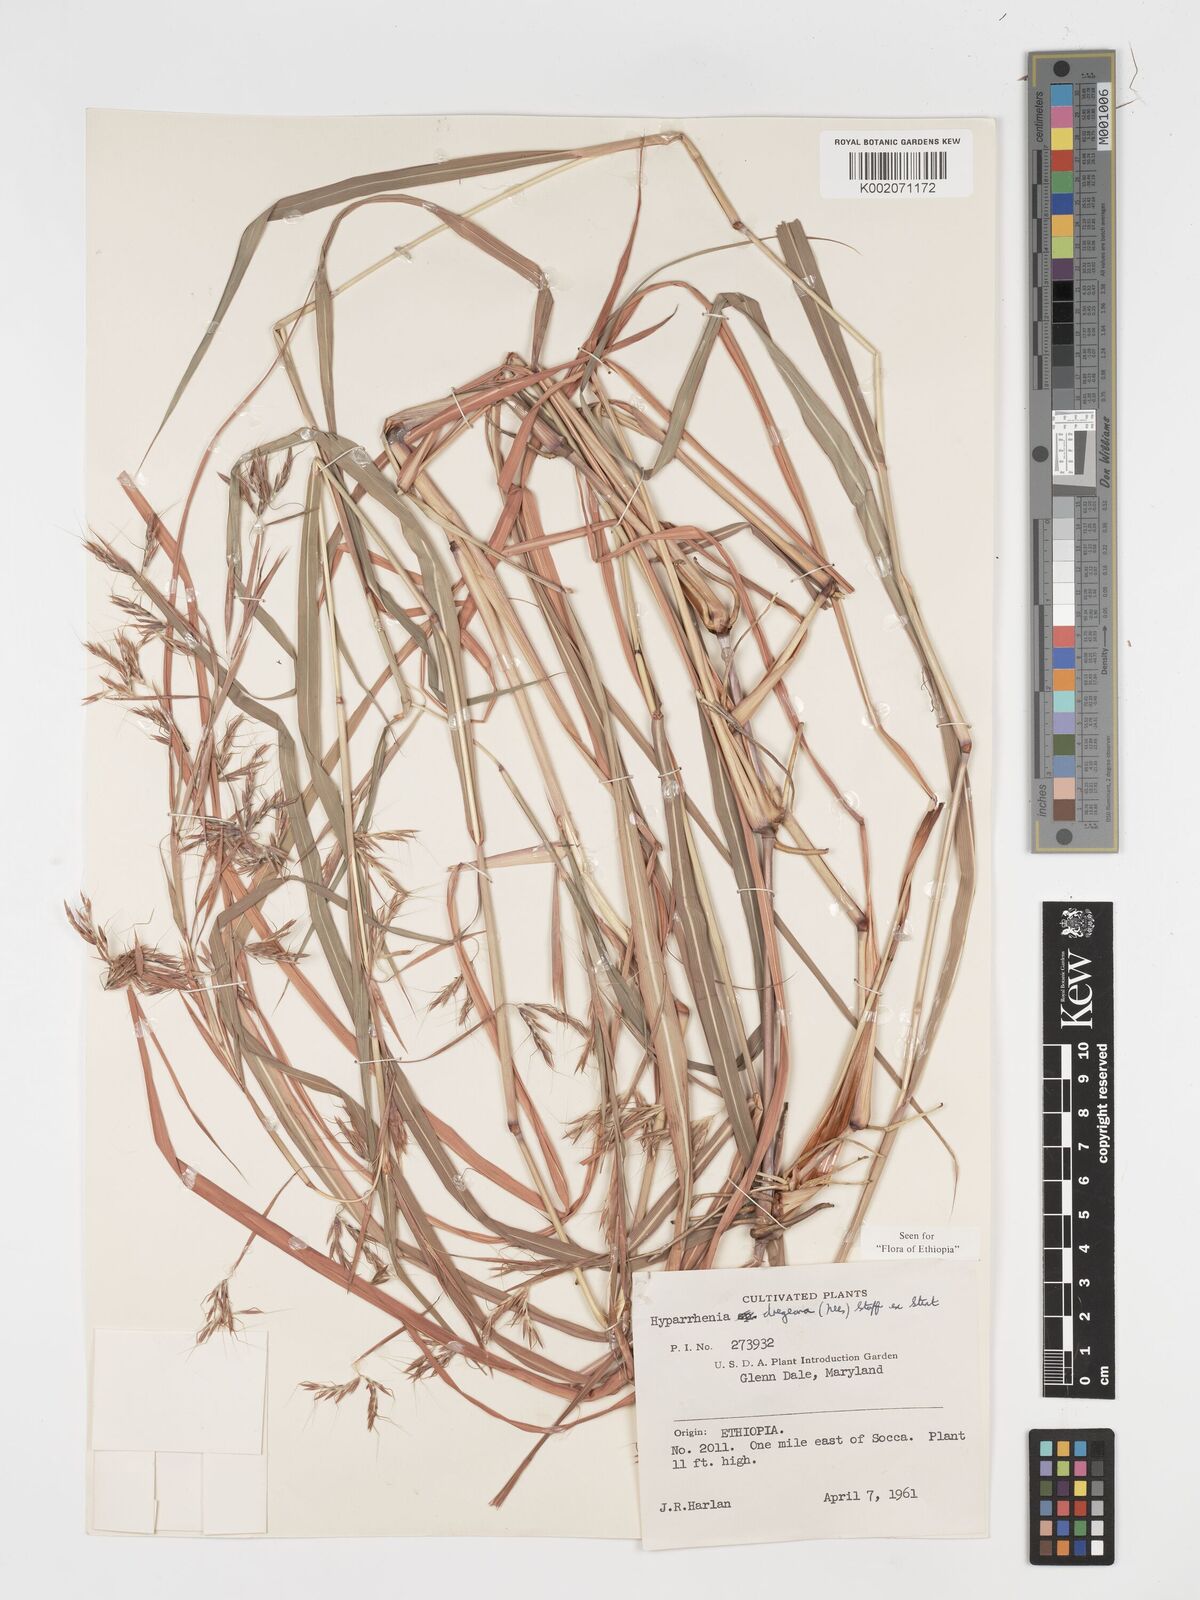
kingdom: Plantae
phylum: Tracheophyta
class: Liliopsida
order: Poales
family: Poaceae
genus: Hyparrhenia
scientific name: Hyparrhenia dregeana
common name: Silky thatching grass
